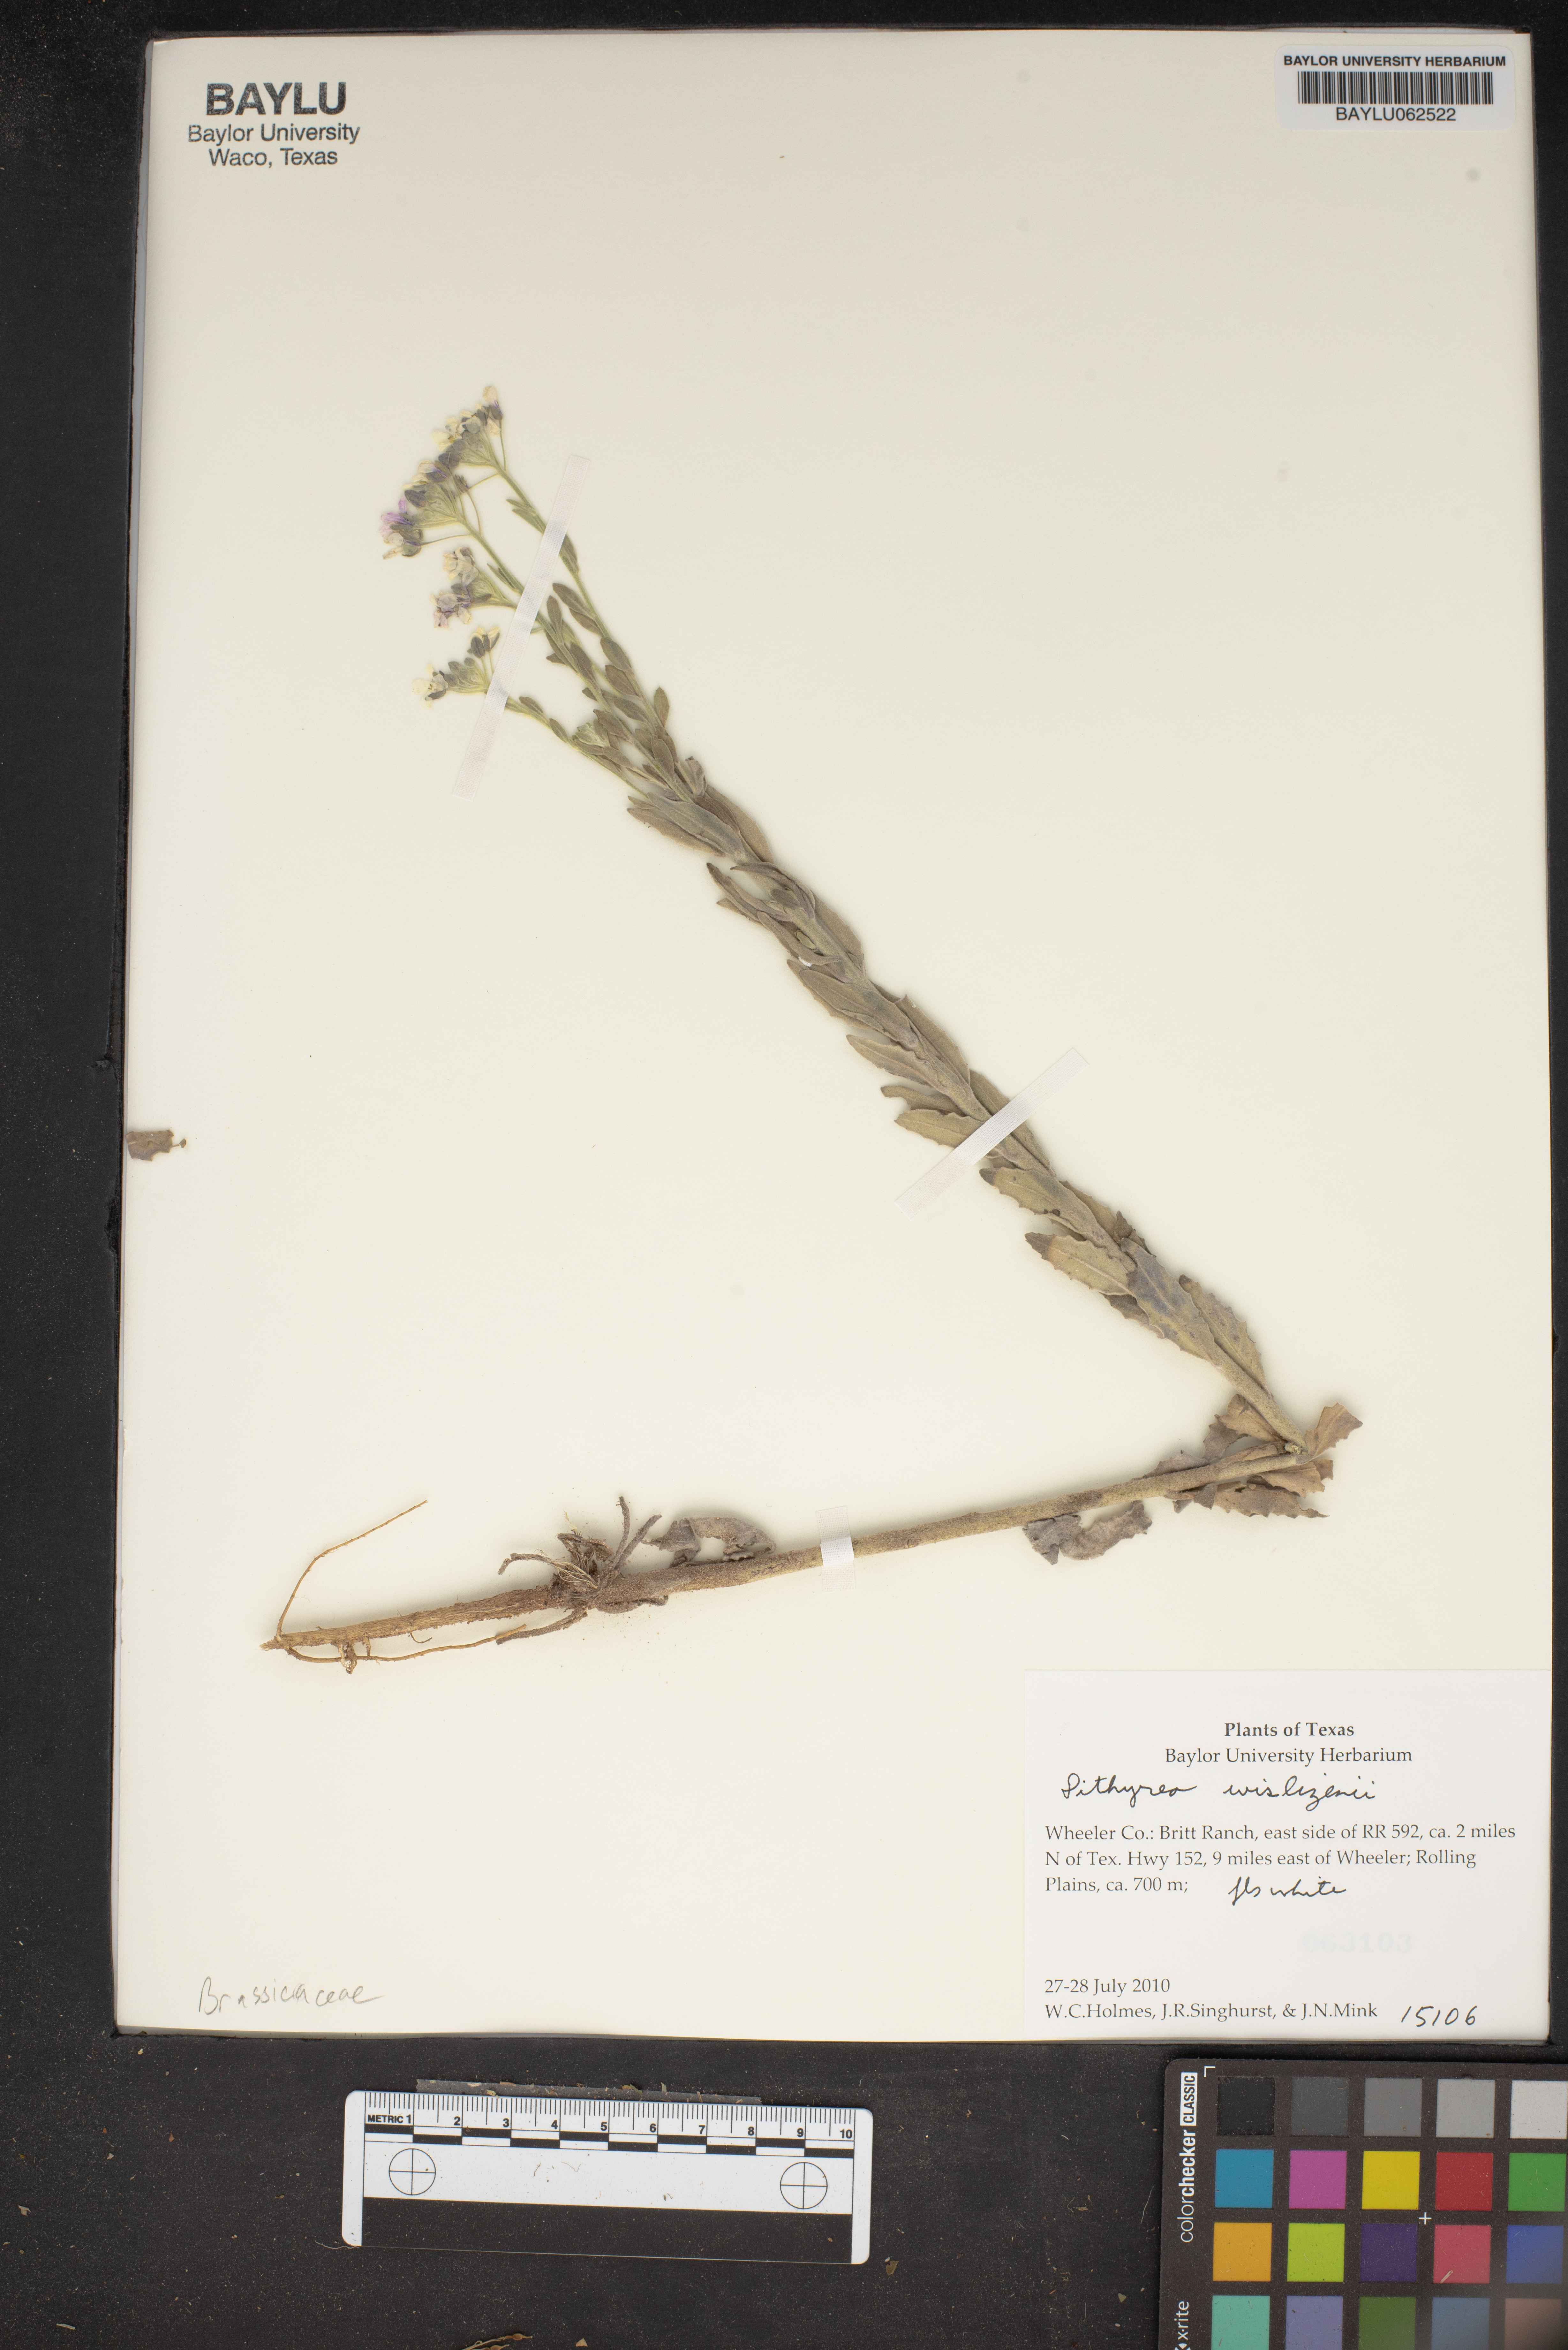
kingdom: Plantae
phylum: Tracheophyta
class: Magnoliopsida
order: Brassicales
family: Brassicaceae
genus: Dimorphocarpa
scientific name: Dimorphocarpa wislizenii
